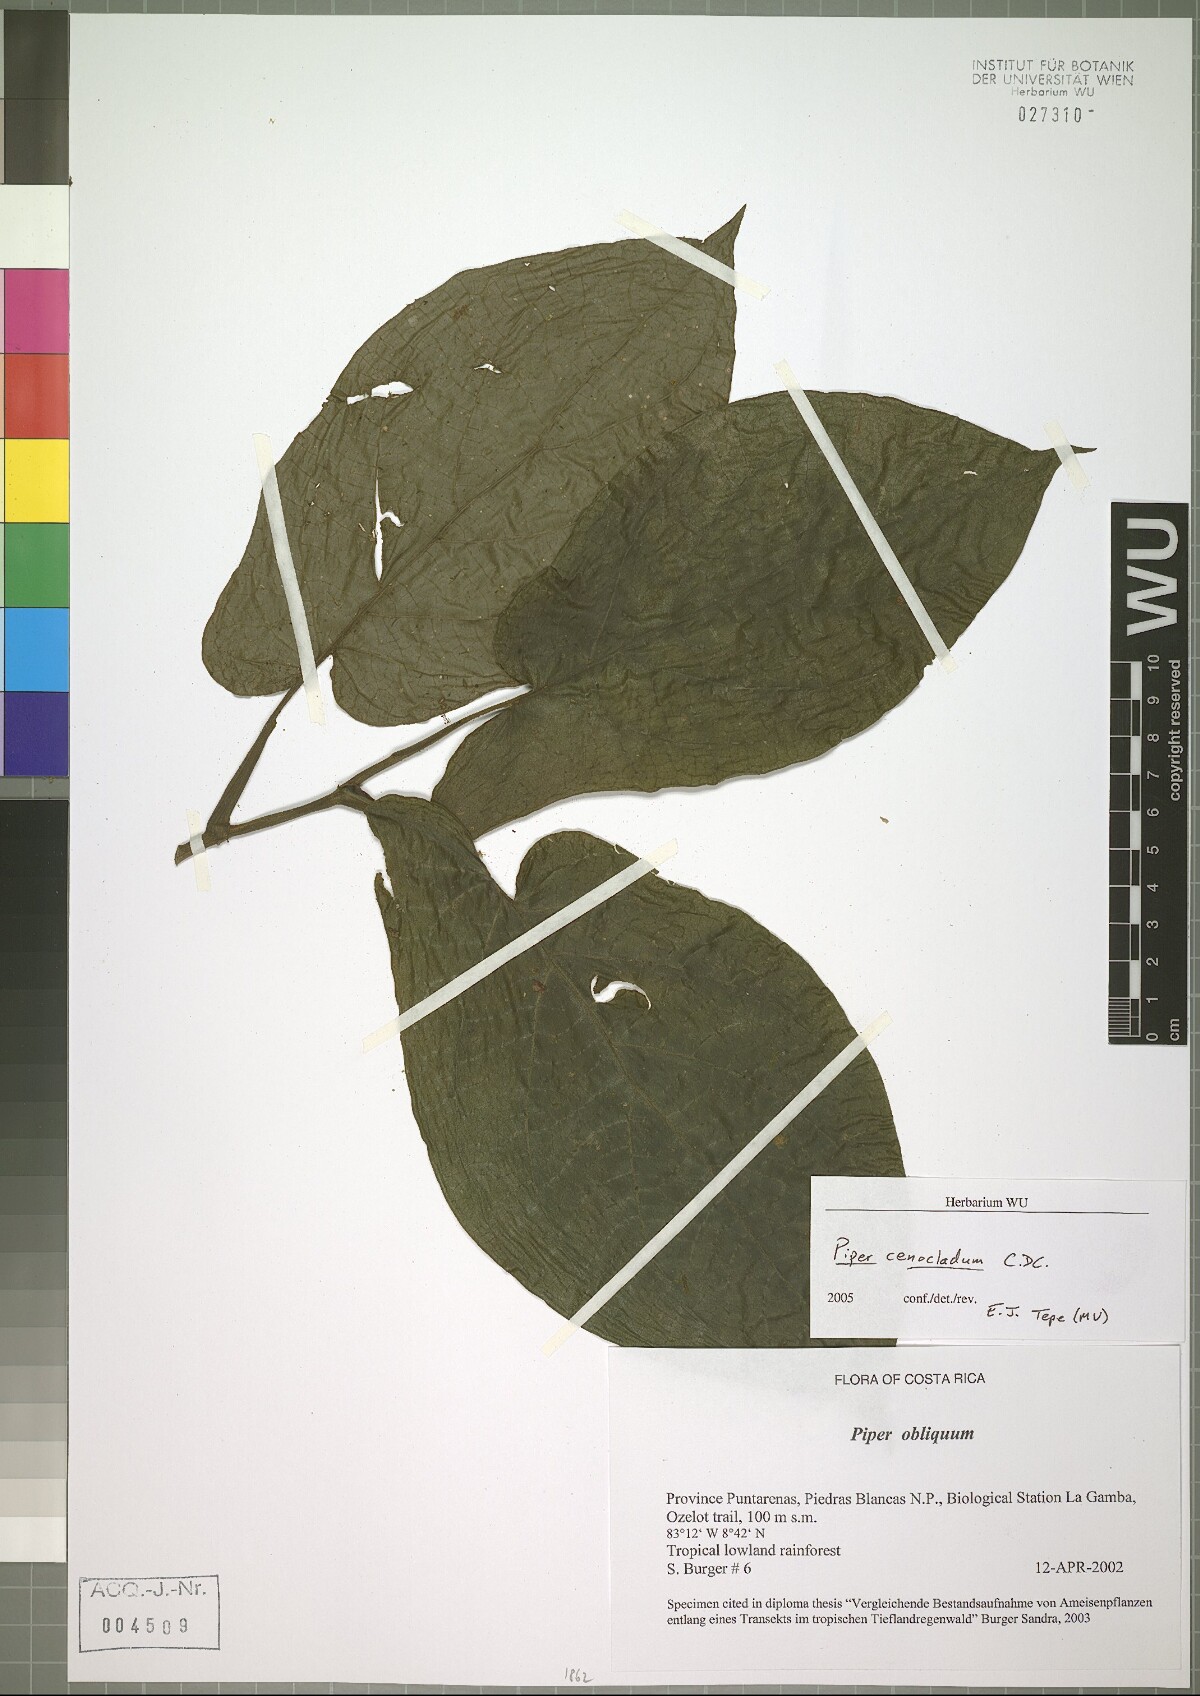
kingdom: Plantae
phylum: Tracheophyta
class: Magnoliopsida
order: Piperales
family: Piperaceae
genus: Piper
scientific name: Piper obliquum
